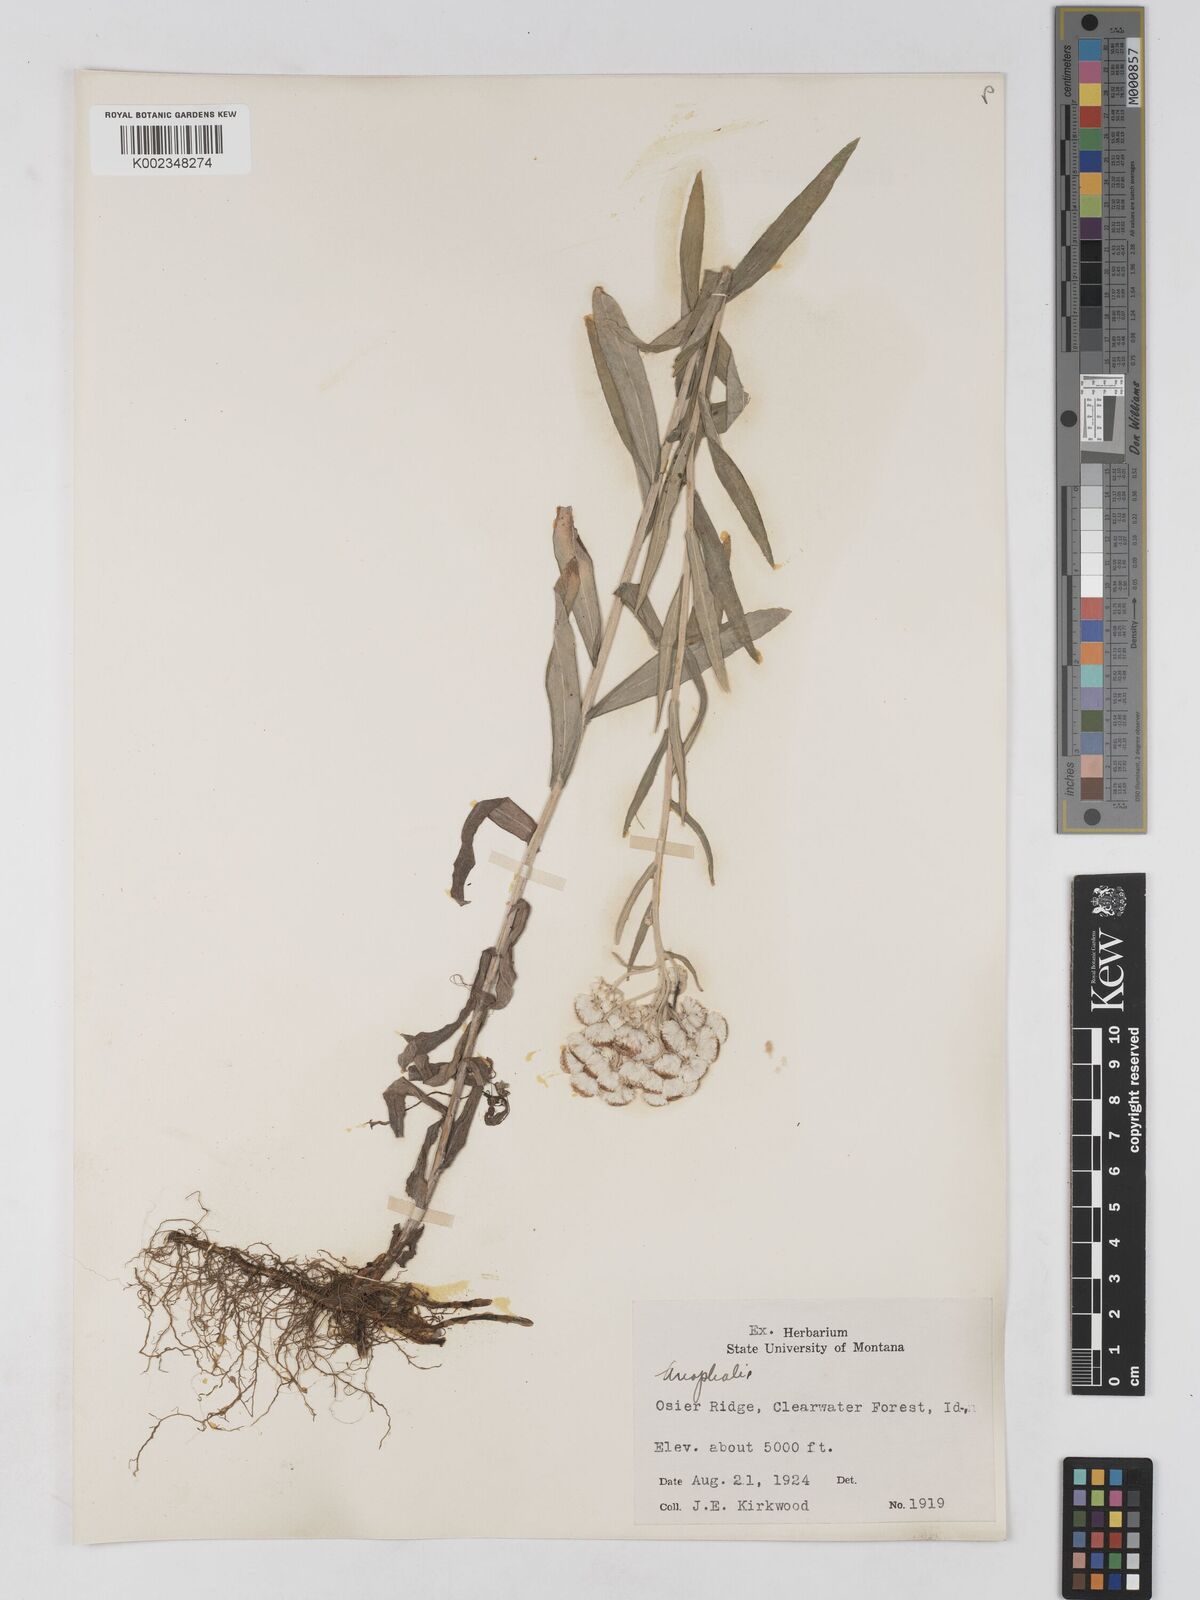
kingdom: Plantae
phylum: Tracheophyta
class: Magnoliopsida
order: Asterales
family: Asteraceae
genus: Anaphalis
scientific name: Anaphalis
